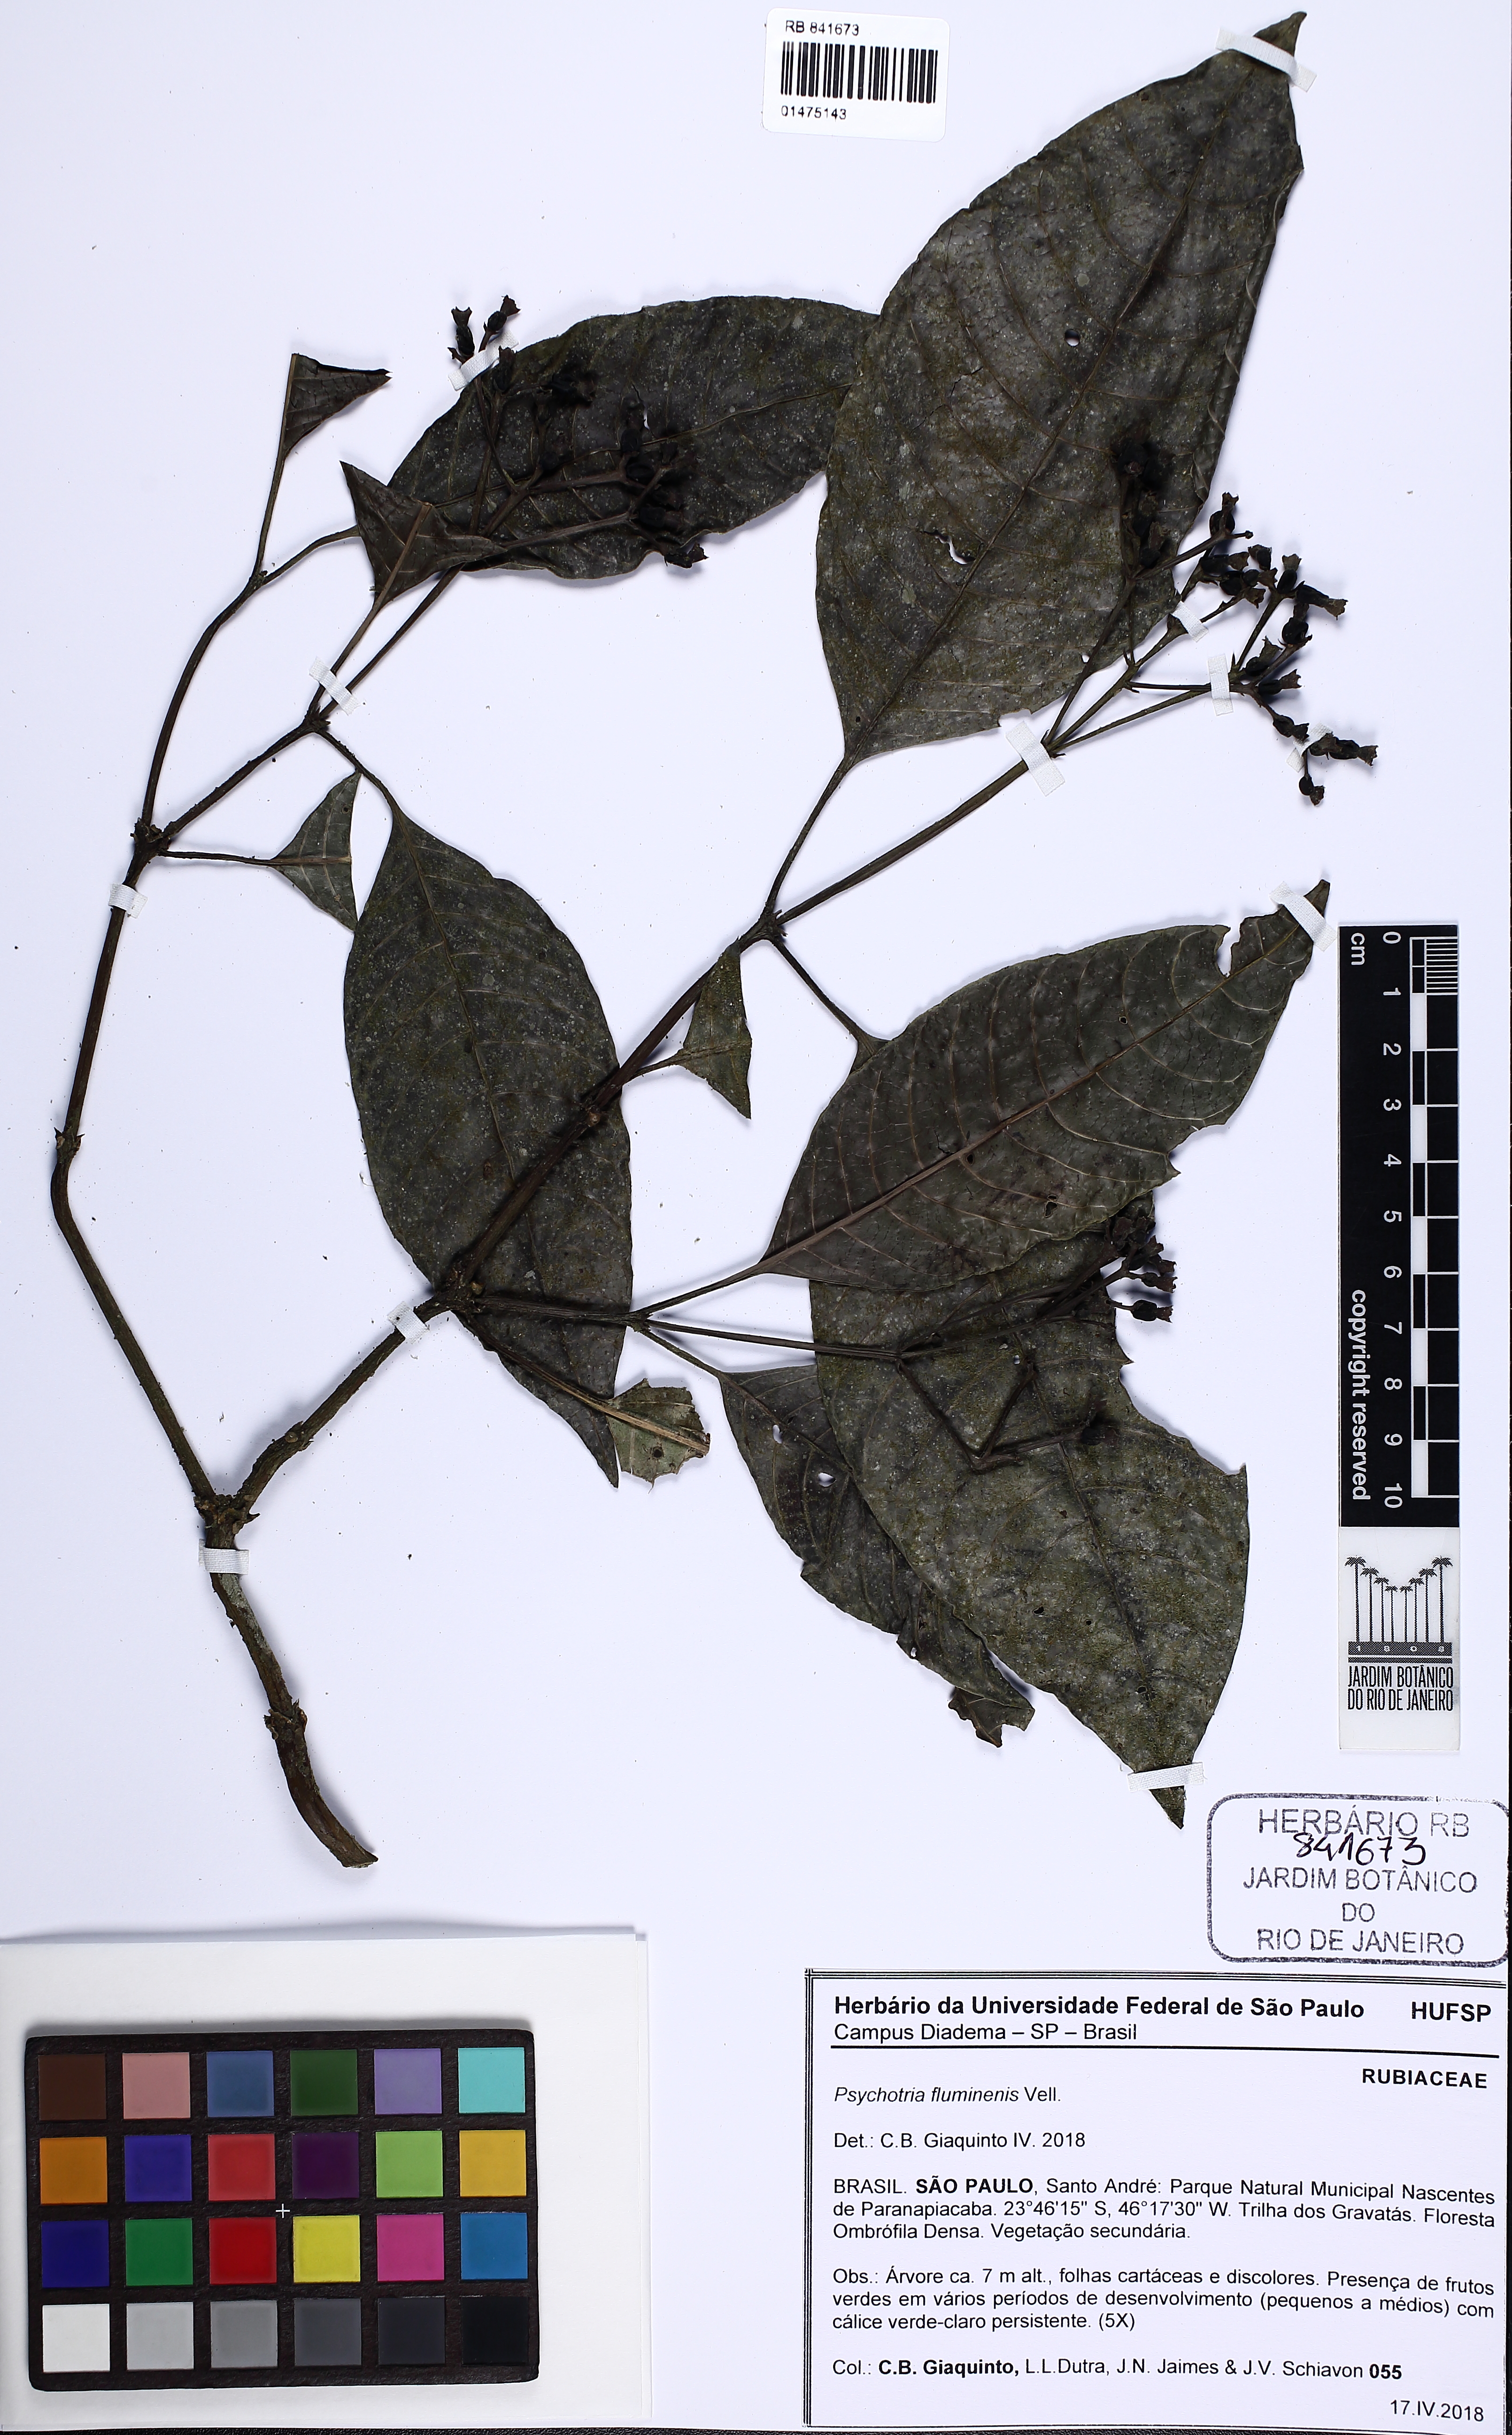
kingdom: Plantae
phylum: Tracheophyta
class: Magnoliopsida
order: Gentianales
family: Rubiaceae
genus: Psychotria
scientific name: Psychotria fluminensis
